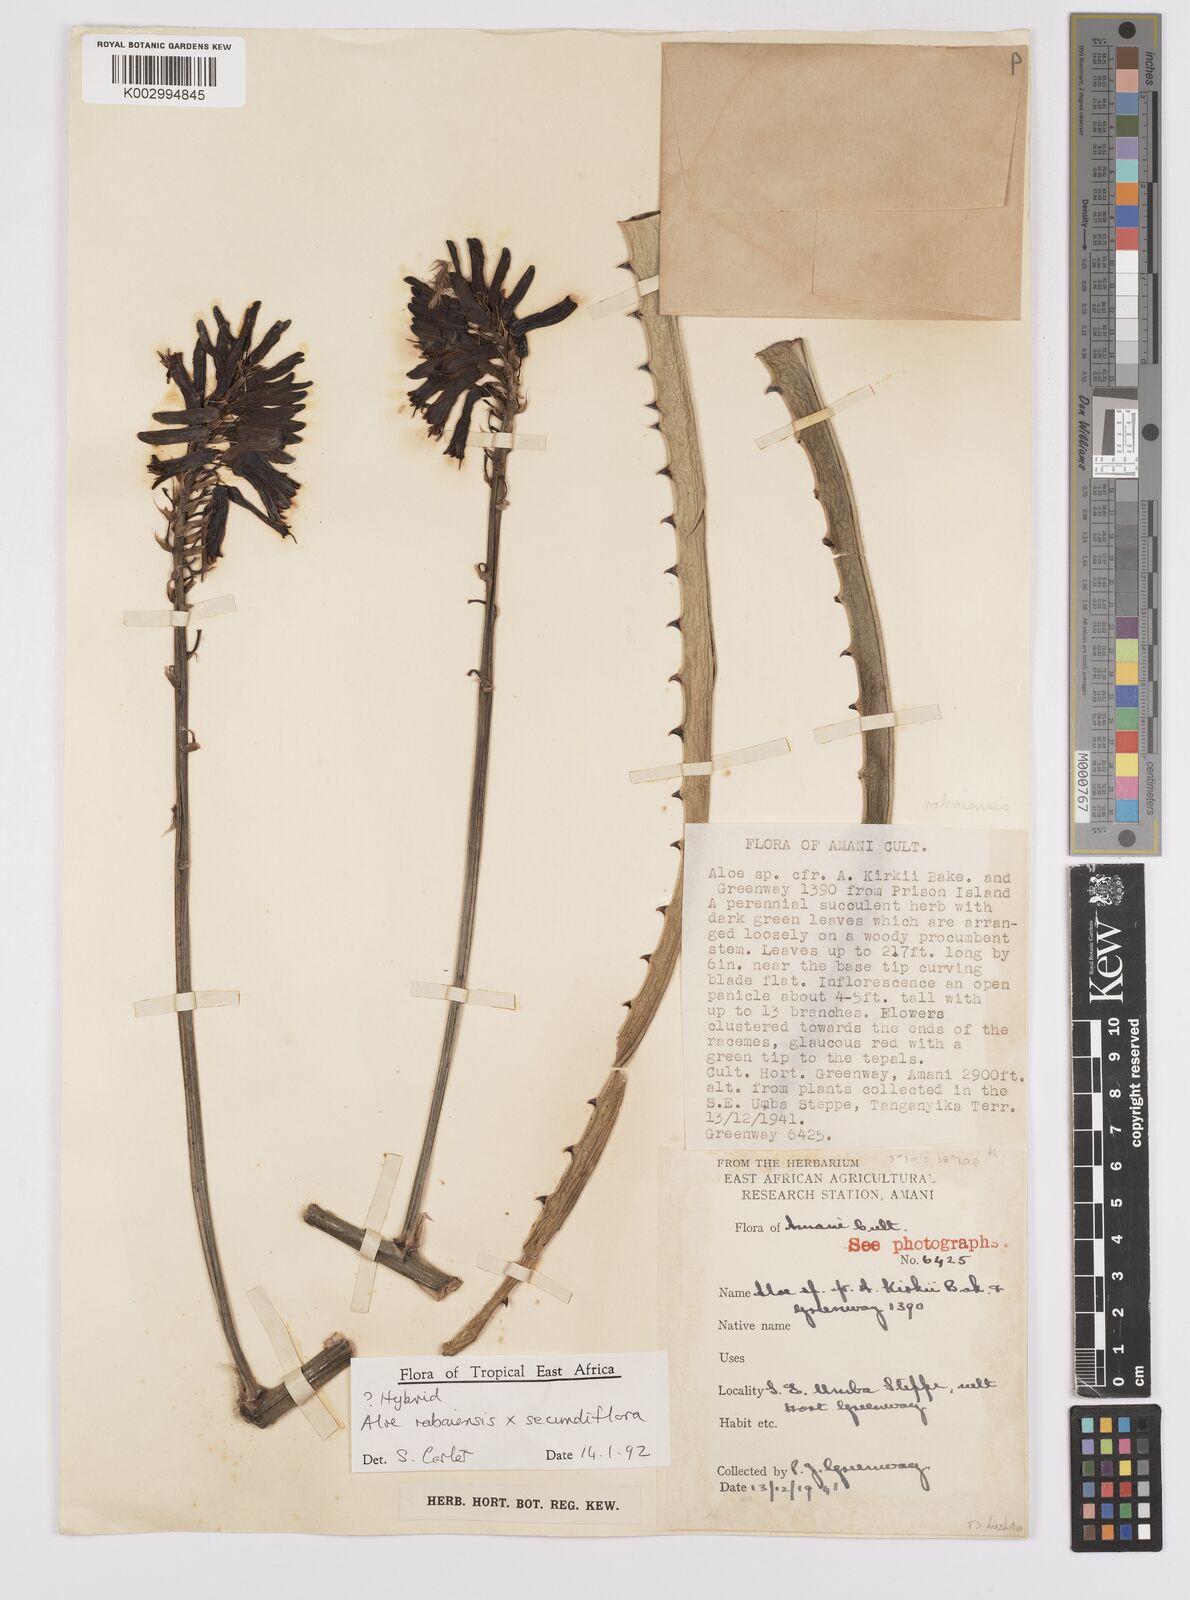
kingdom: Plantae
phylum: Tracheophyta
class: Liliopsida
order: Asparagales
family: Asphodelaceae
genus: Aloe
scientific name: Aloe rabaiensis
